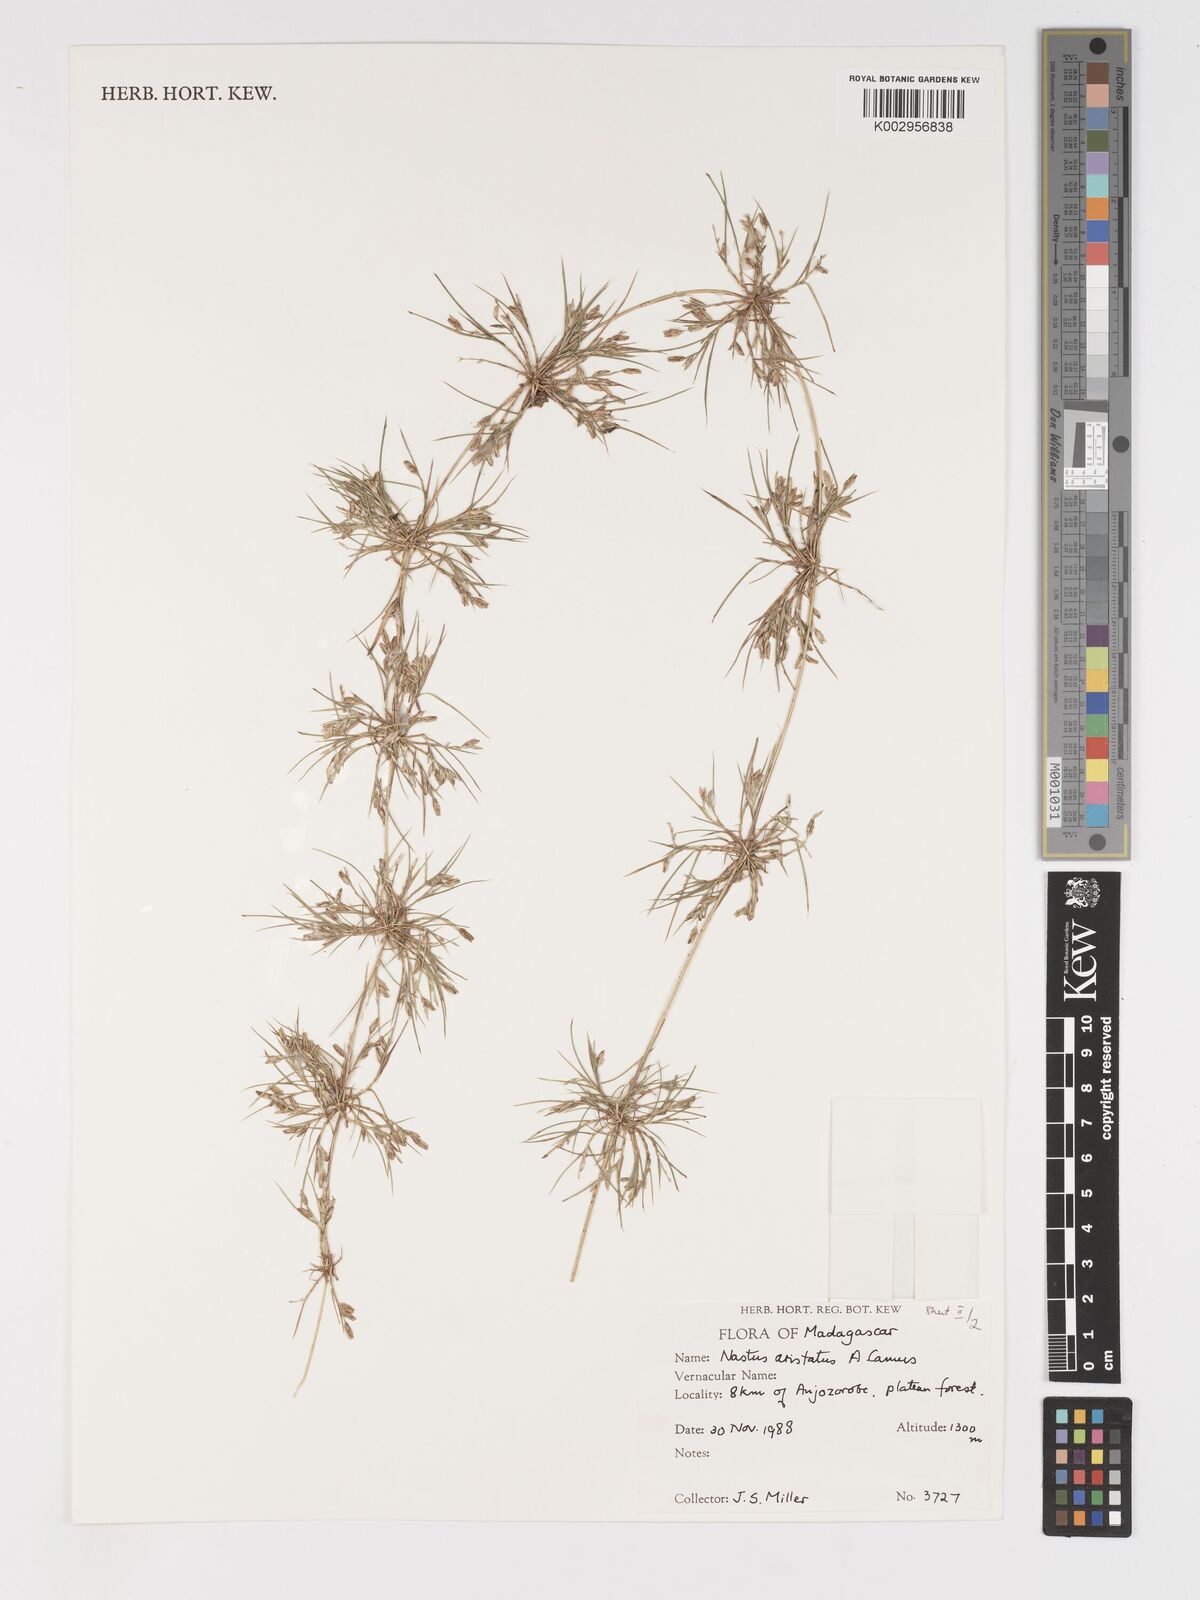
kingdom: Plantae
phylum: Tracheophyta
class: Liliopsida
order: Poales
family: Poaceae
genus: Nastus
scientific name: Nastus aristatus
